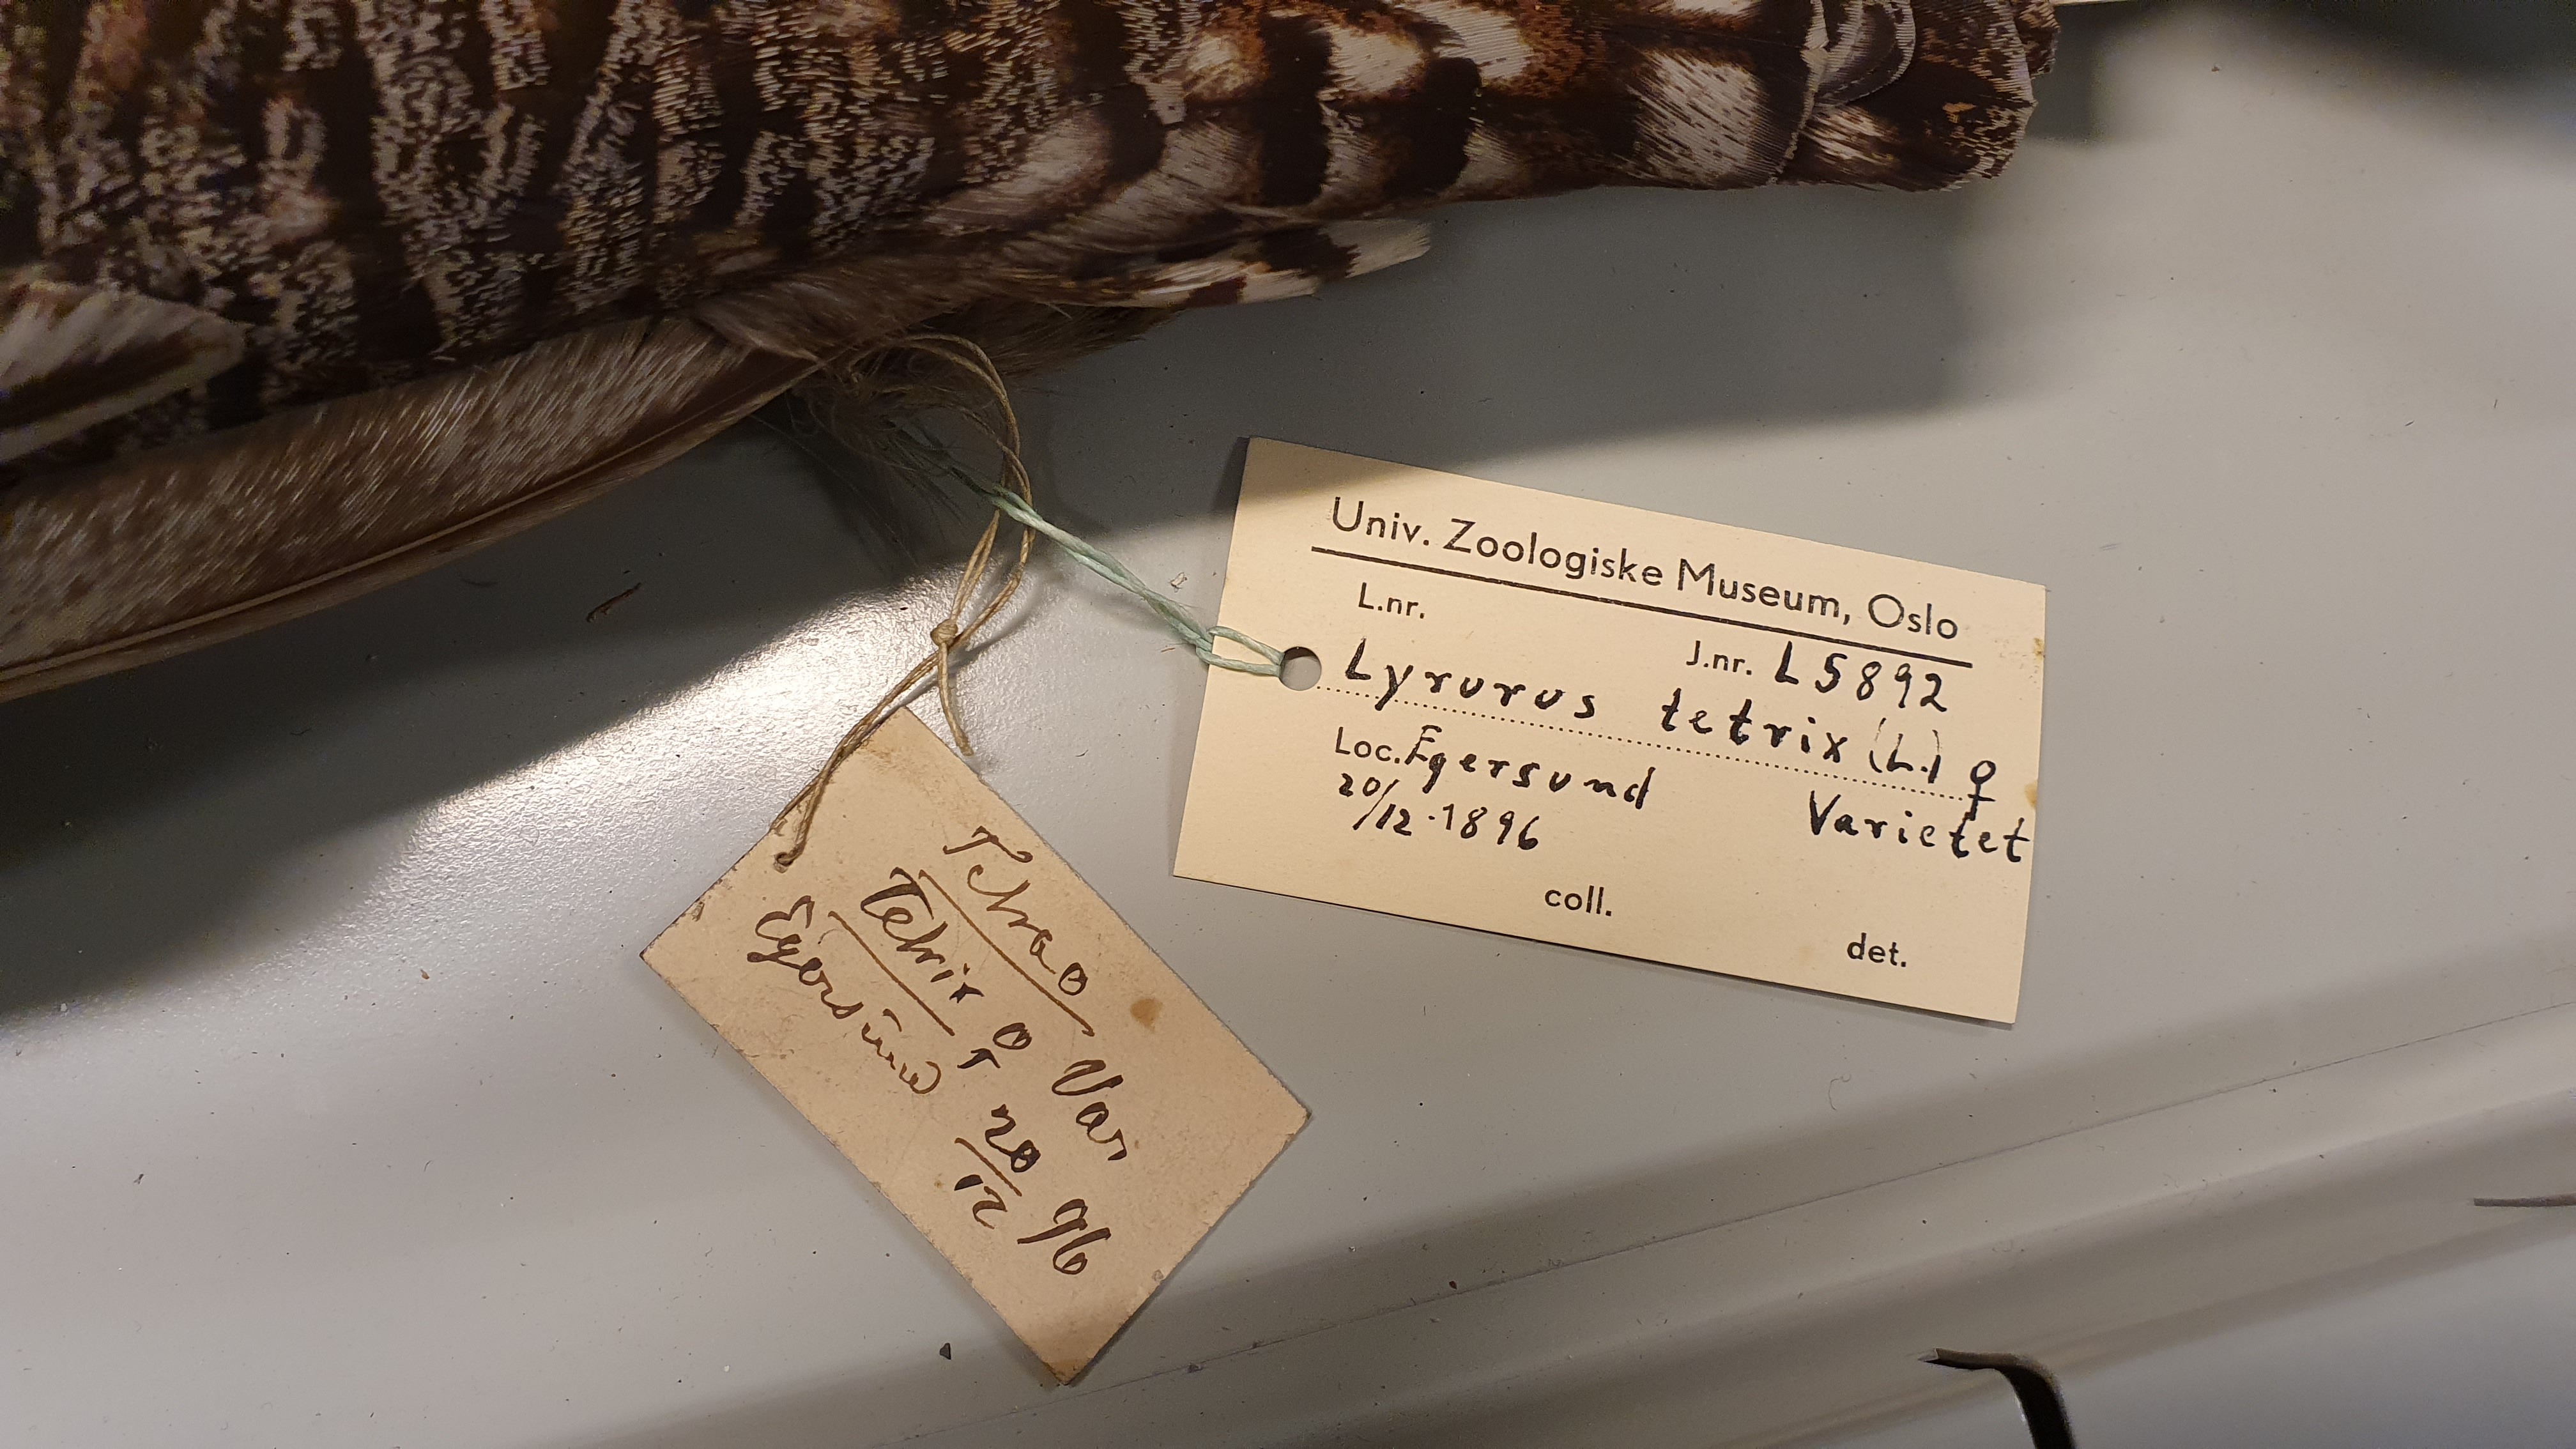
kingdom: Animalia
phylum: Chordata
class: Aves
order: Galliformes
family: Phasianidae
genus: Lyrurus
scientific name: Lyrurus tetrix
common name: Black grouse
